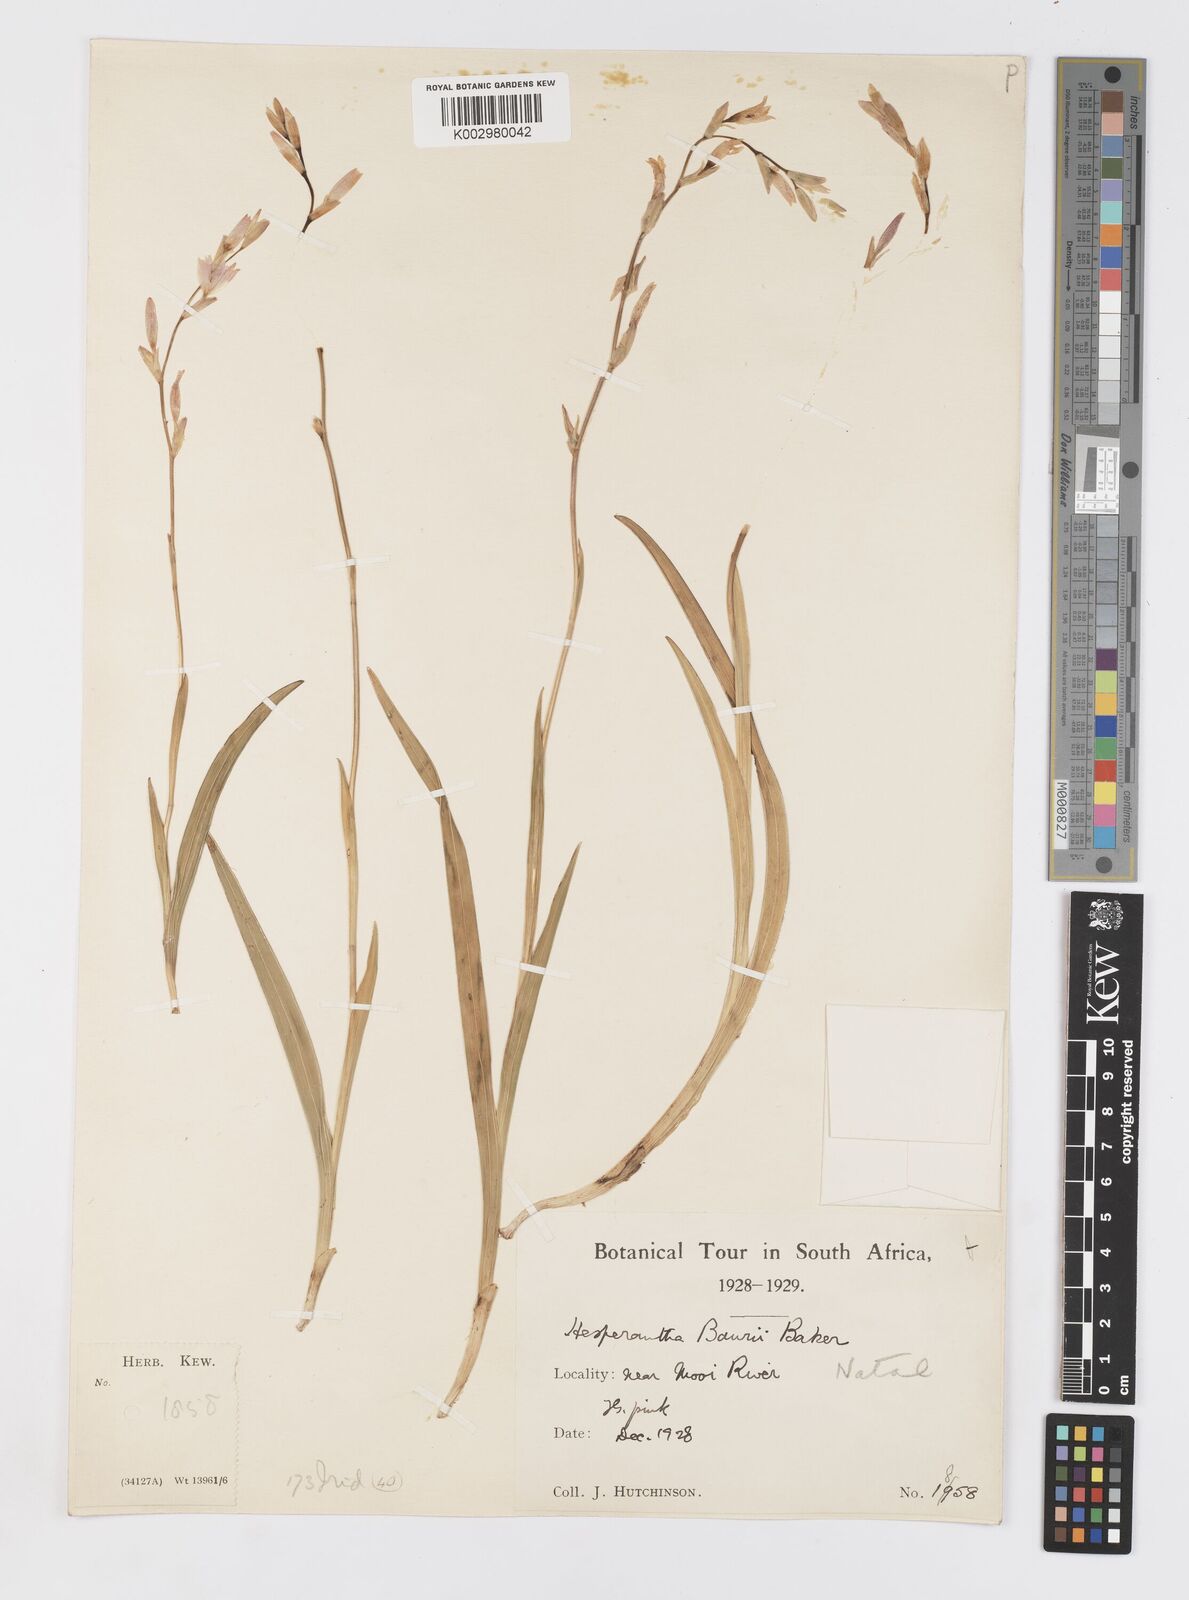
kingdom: Plantae
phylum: Tracheophyta
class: Liliopsida
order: Asparagales
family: Iridaceae
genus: Hesperantha
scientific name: Hesperantha baurii
